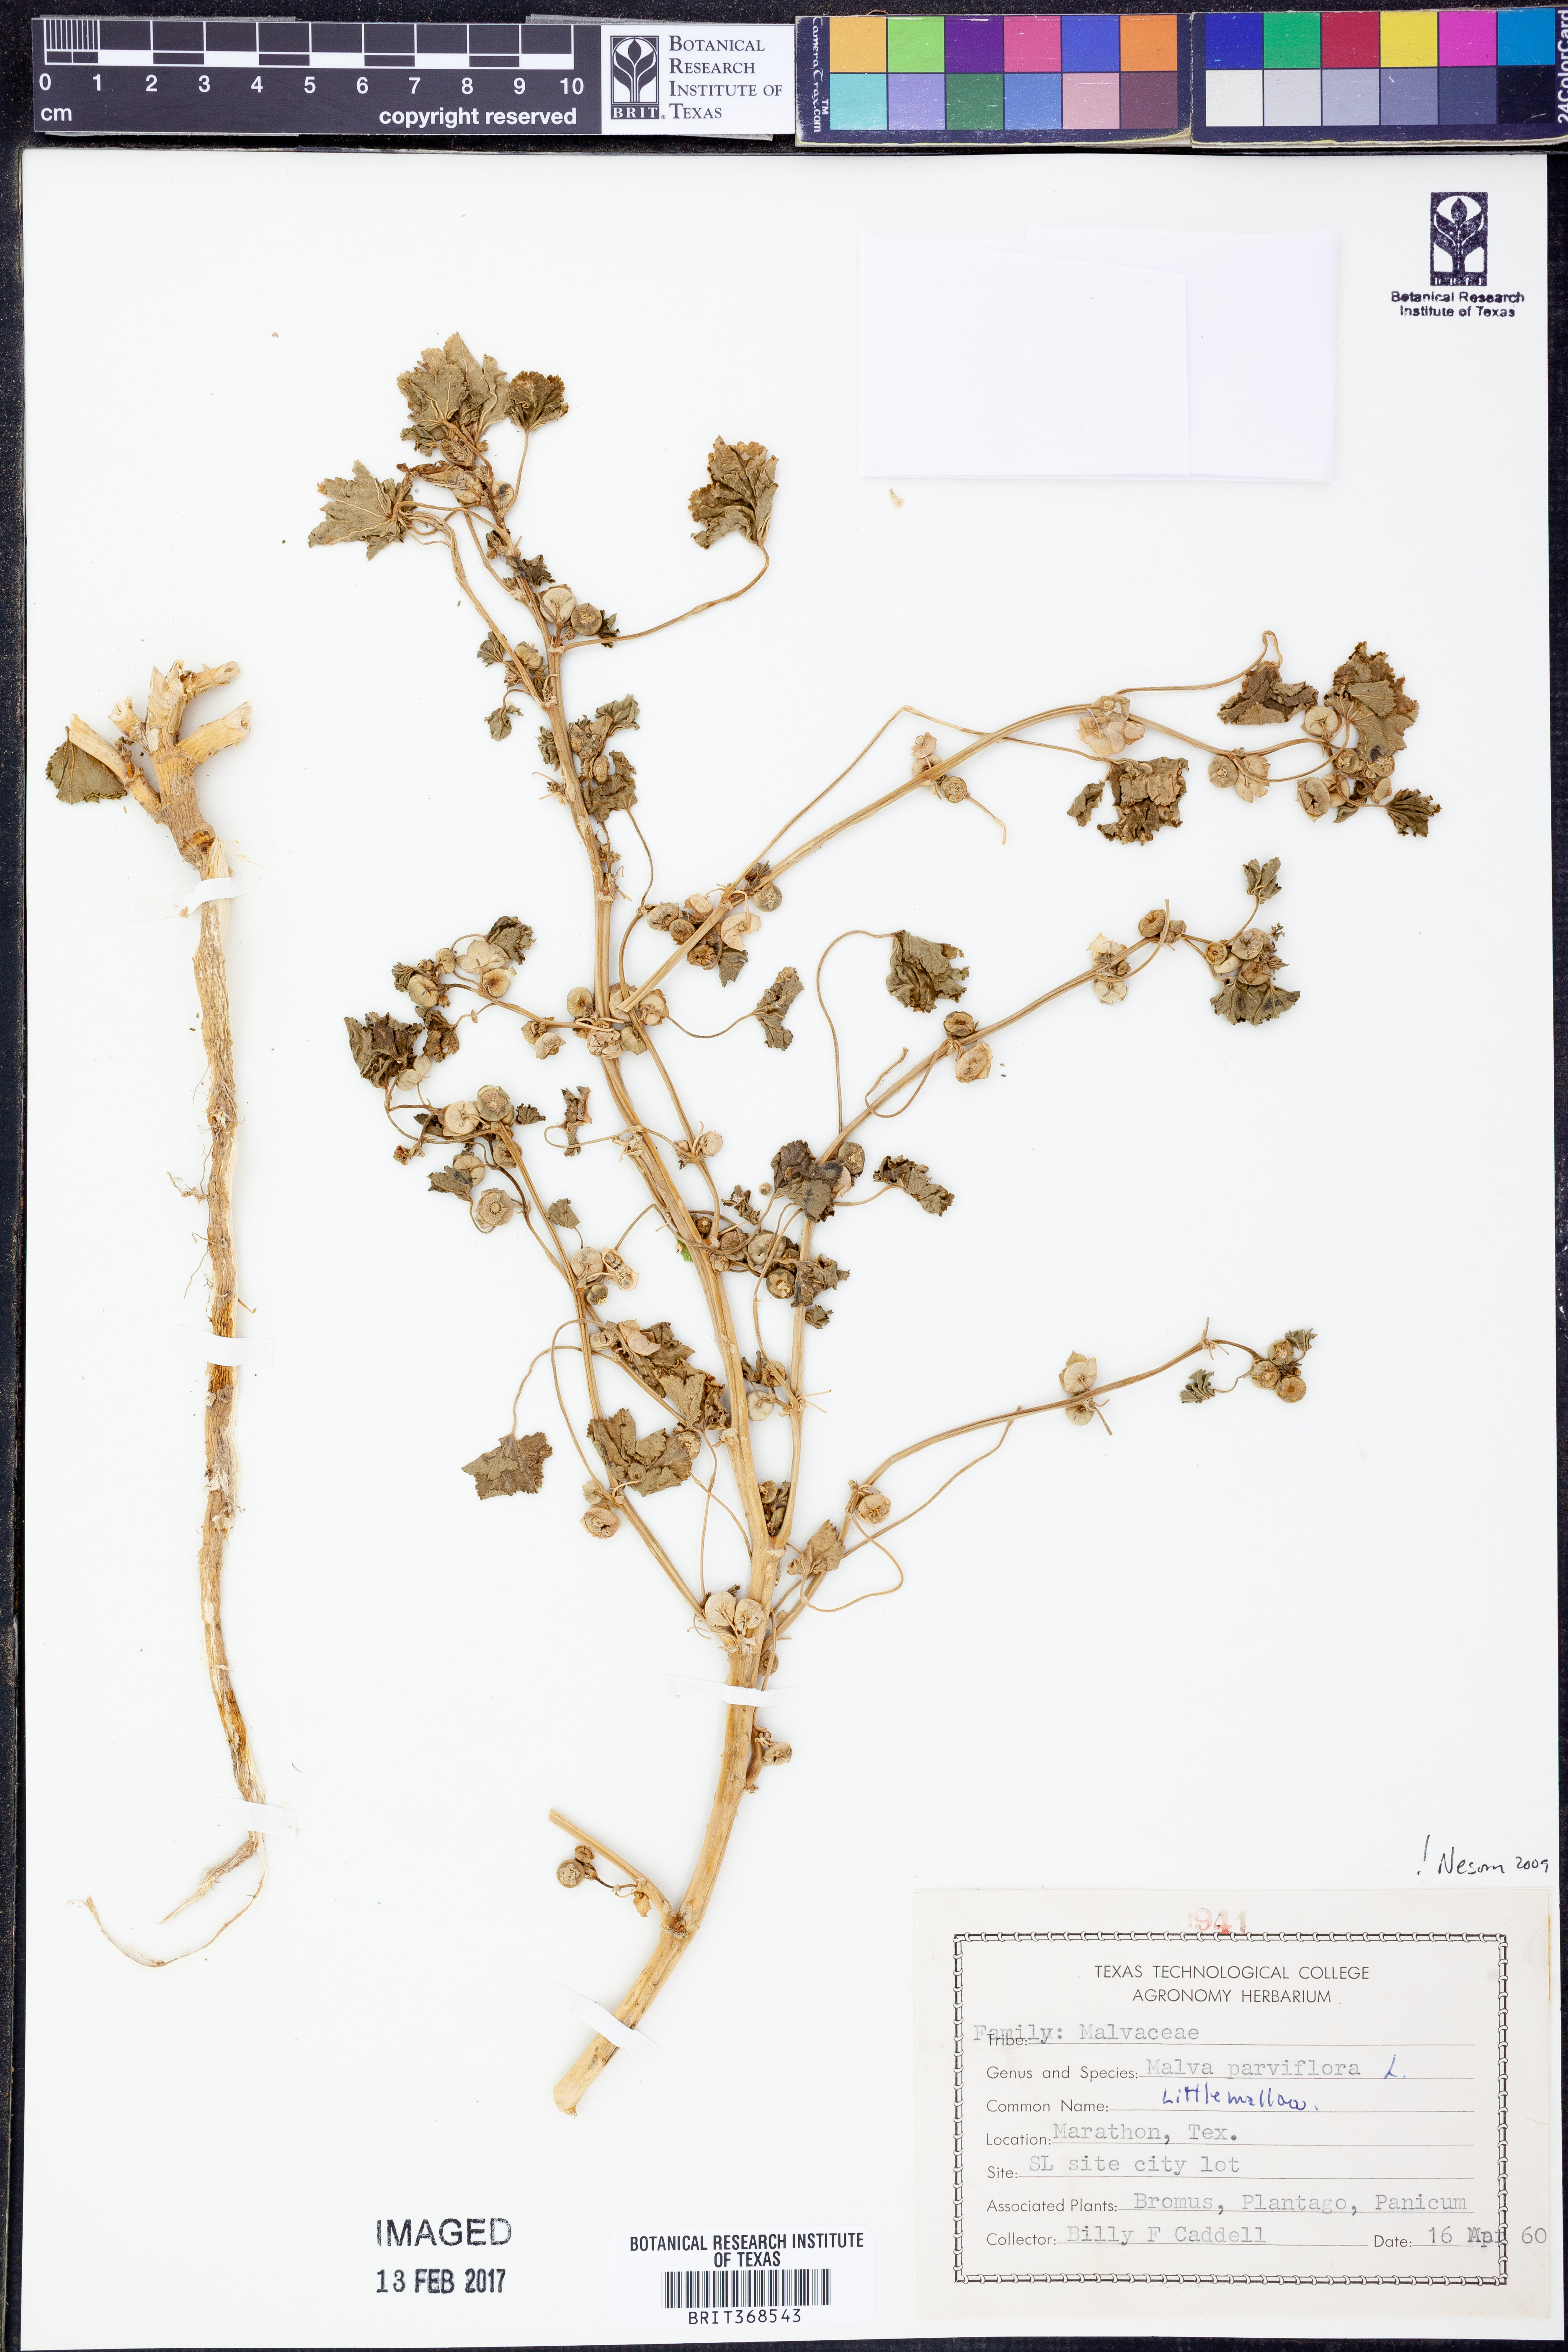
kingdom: Plantae
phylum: Tracheophyta
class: Magnoliopsida
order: Malvales
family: Malvaceae
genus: Malva
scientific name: Malva parviflora
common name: Least mallow
